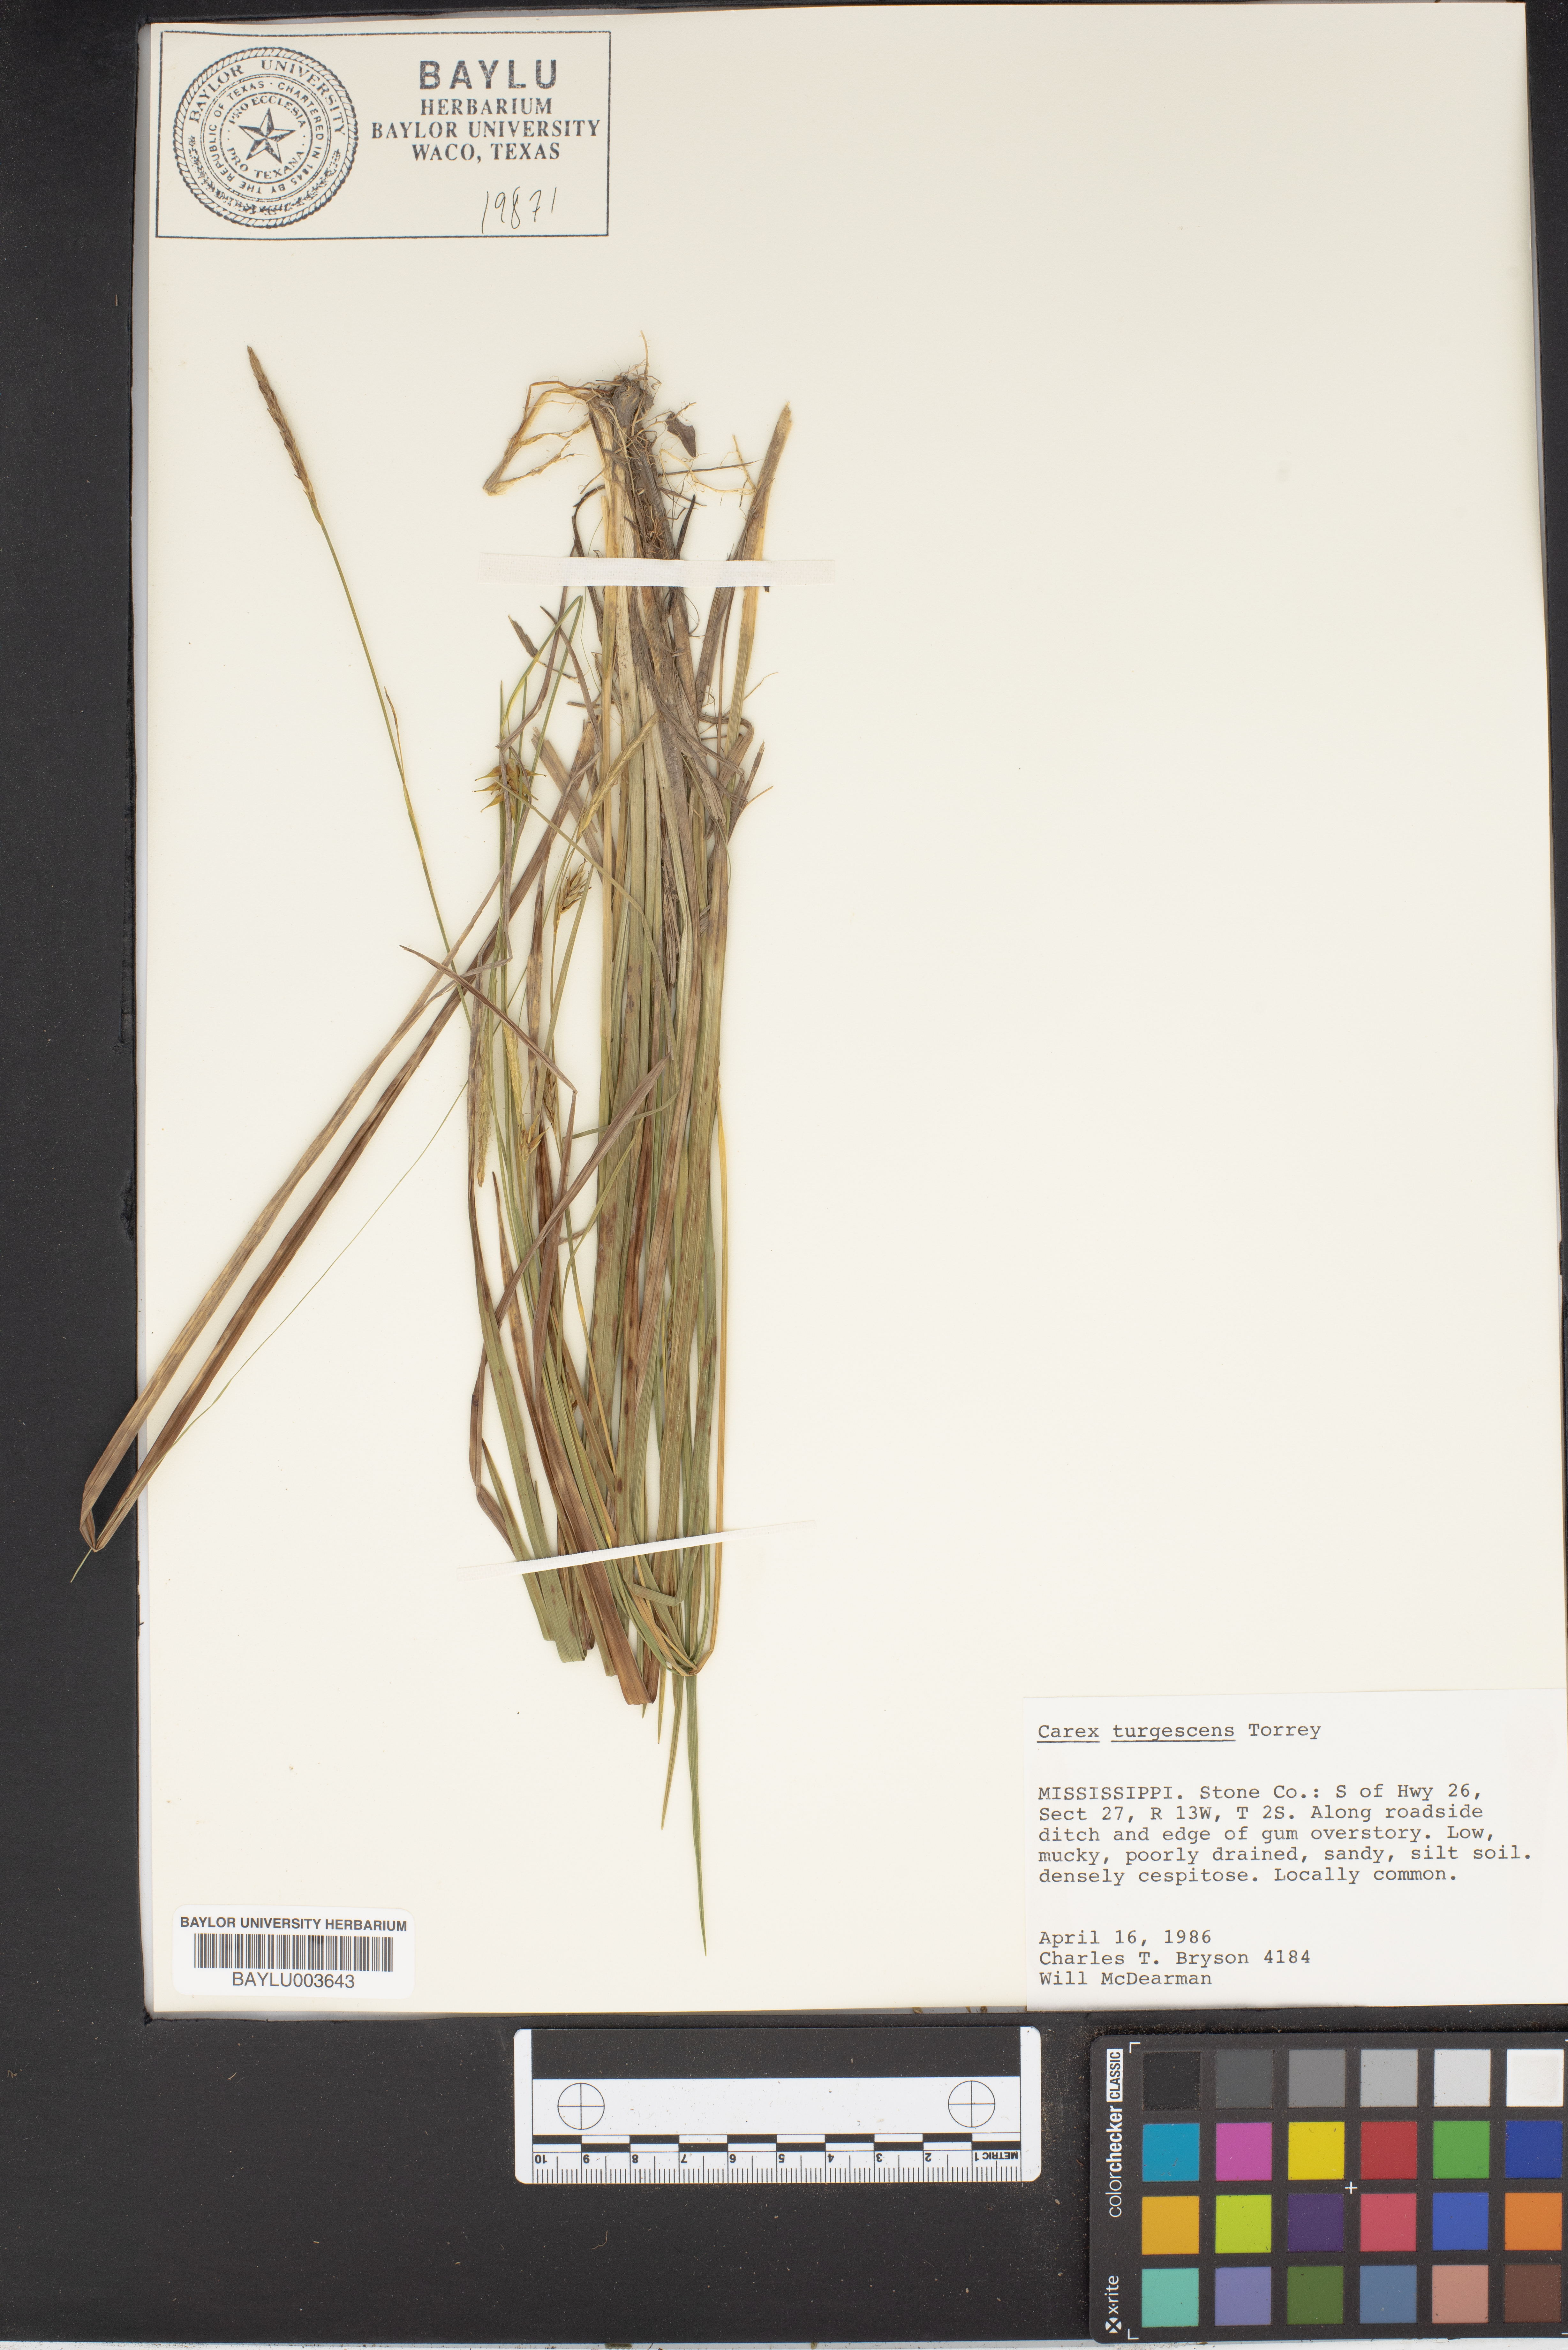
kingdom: Plantae
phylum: Tracheophyta
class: Liliopsida
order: Poales
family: Cyperaceae
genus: Carex
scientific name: Carex turgescens
